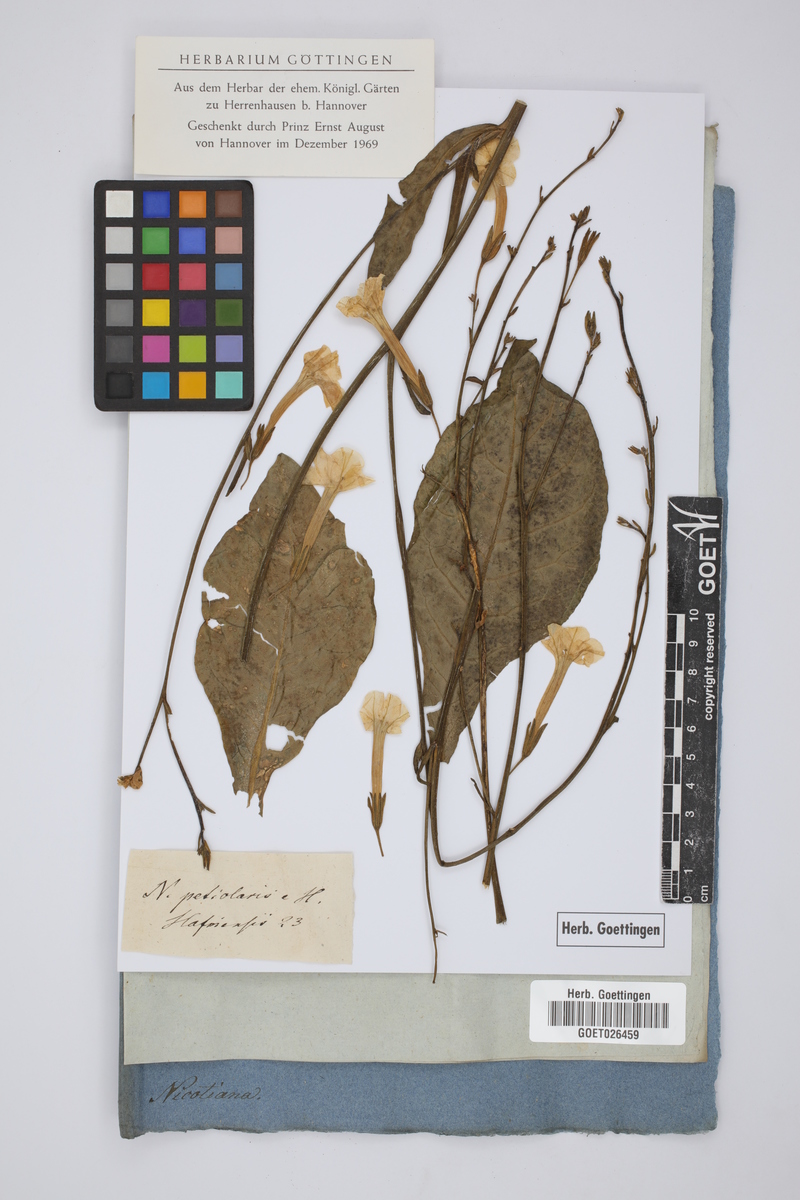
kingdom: Plantae
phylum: Tracheophyta
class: Magnoliopsida
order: Solanales
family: Solanaceae
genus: Nicotiana
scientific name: Nicotiana tabacum
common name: Tobacco
